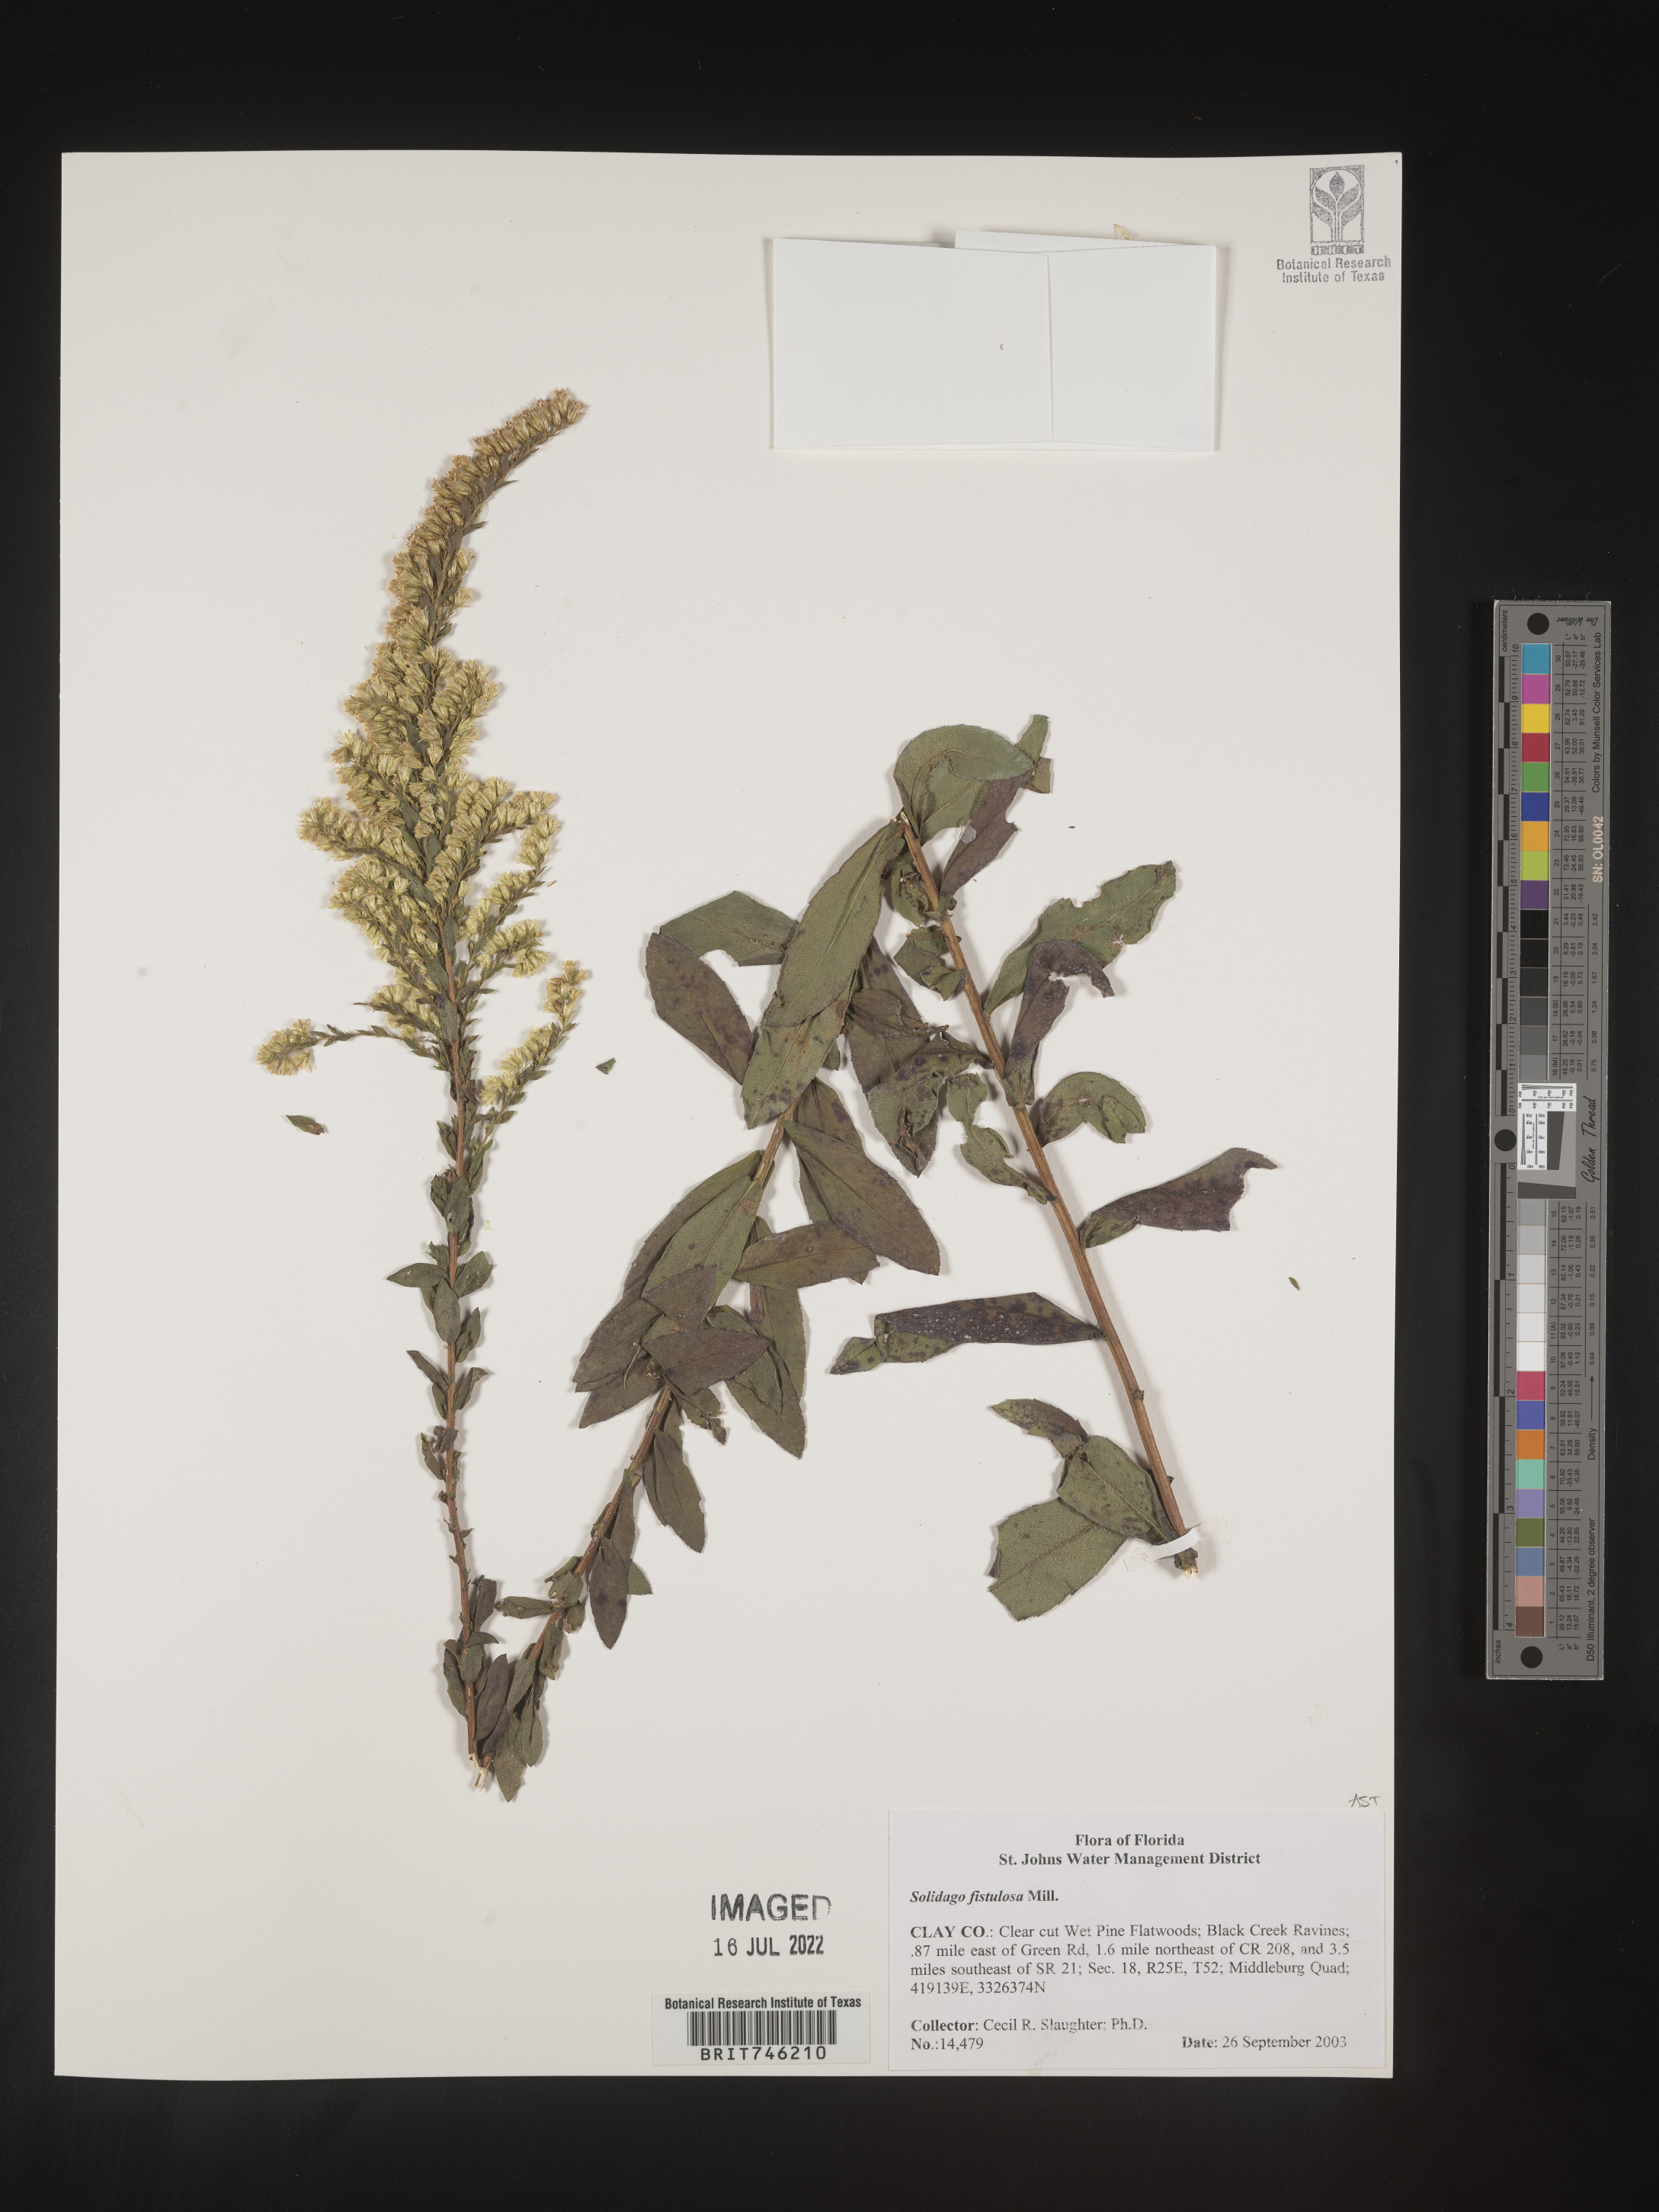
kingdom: Plantae
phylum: Tracheophyta
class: Magnoliopsida
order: Asterales
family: Asteraceae
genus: Solidago
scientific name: Solidago fistulosa
